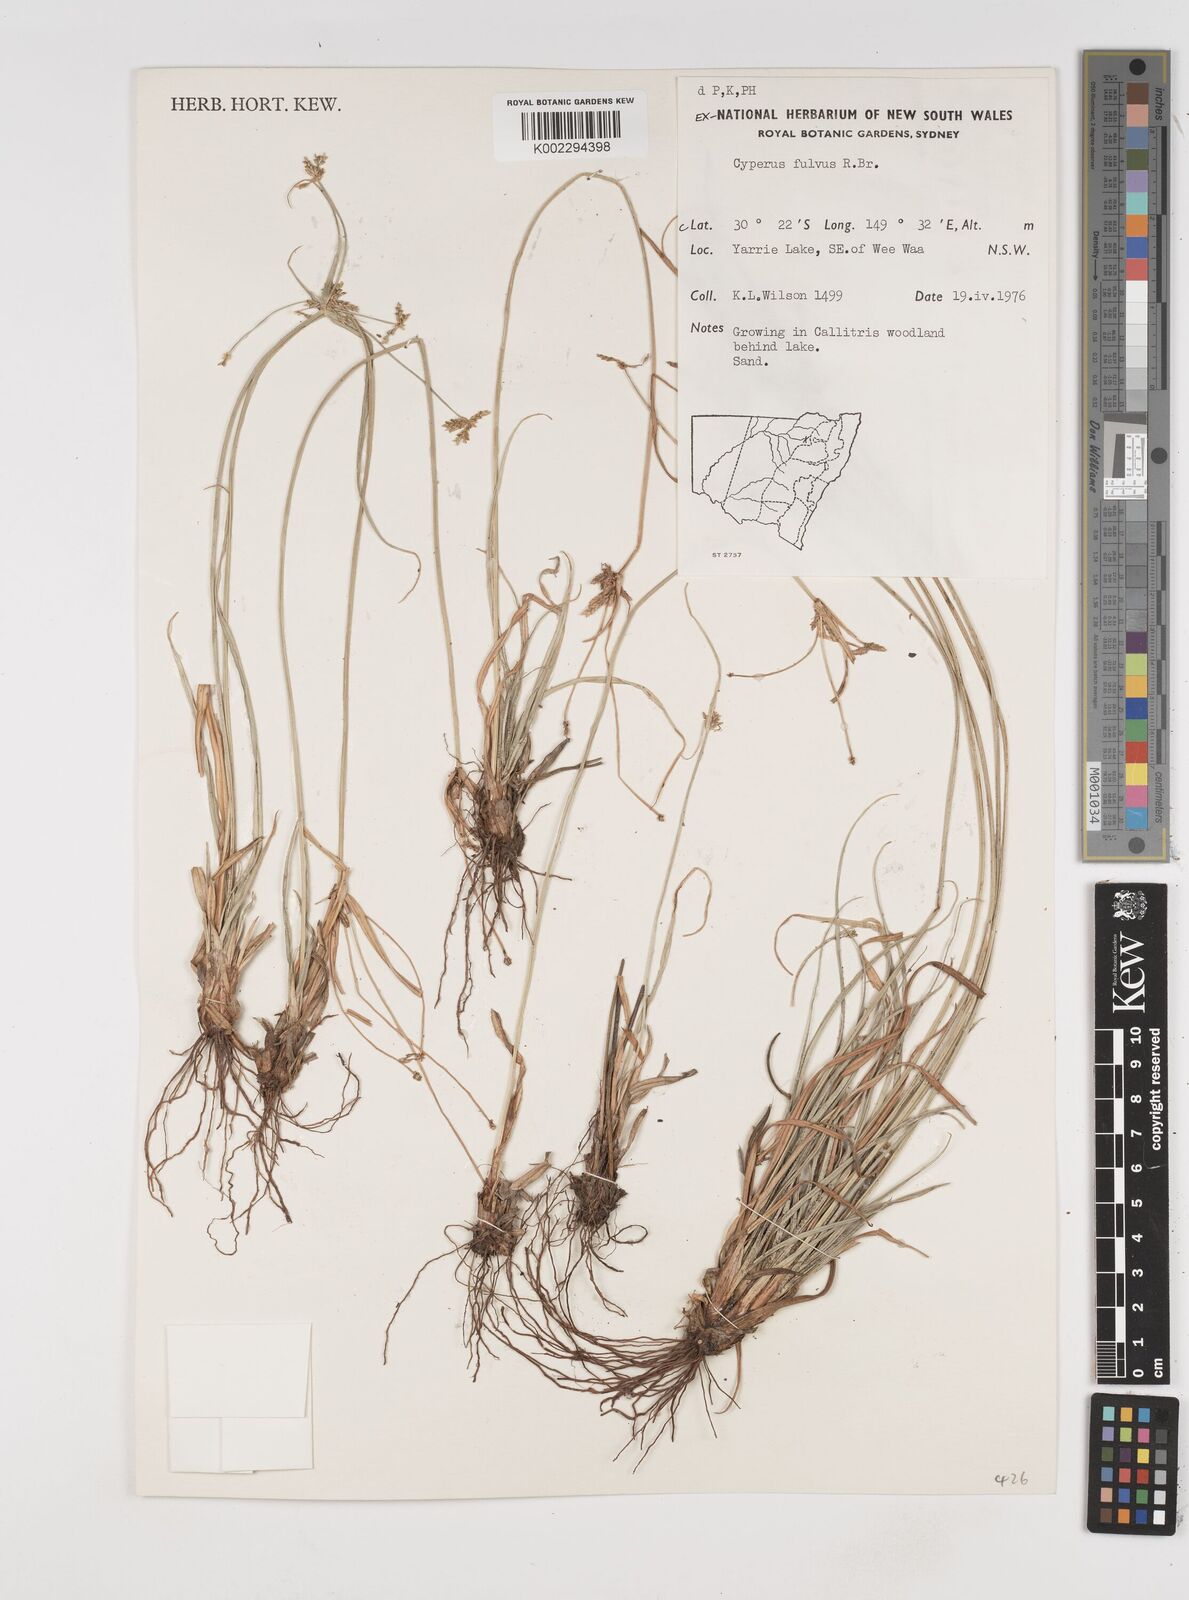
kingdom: Plantae
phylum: Tracheophyta
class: Liliopsida
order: Poales
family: Cyperaceae
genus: Cyperus
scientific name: Cyperus fulvus
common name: Sticky sedge
